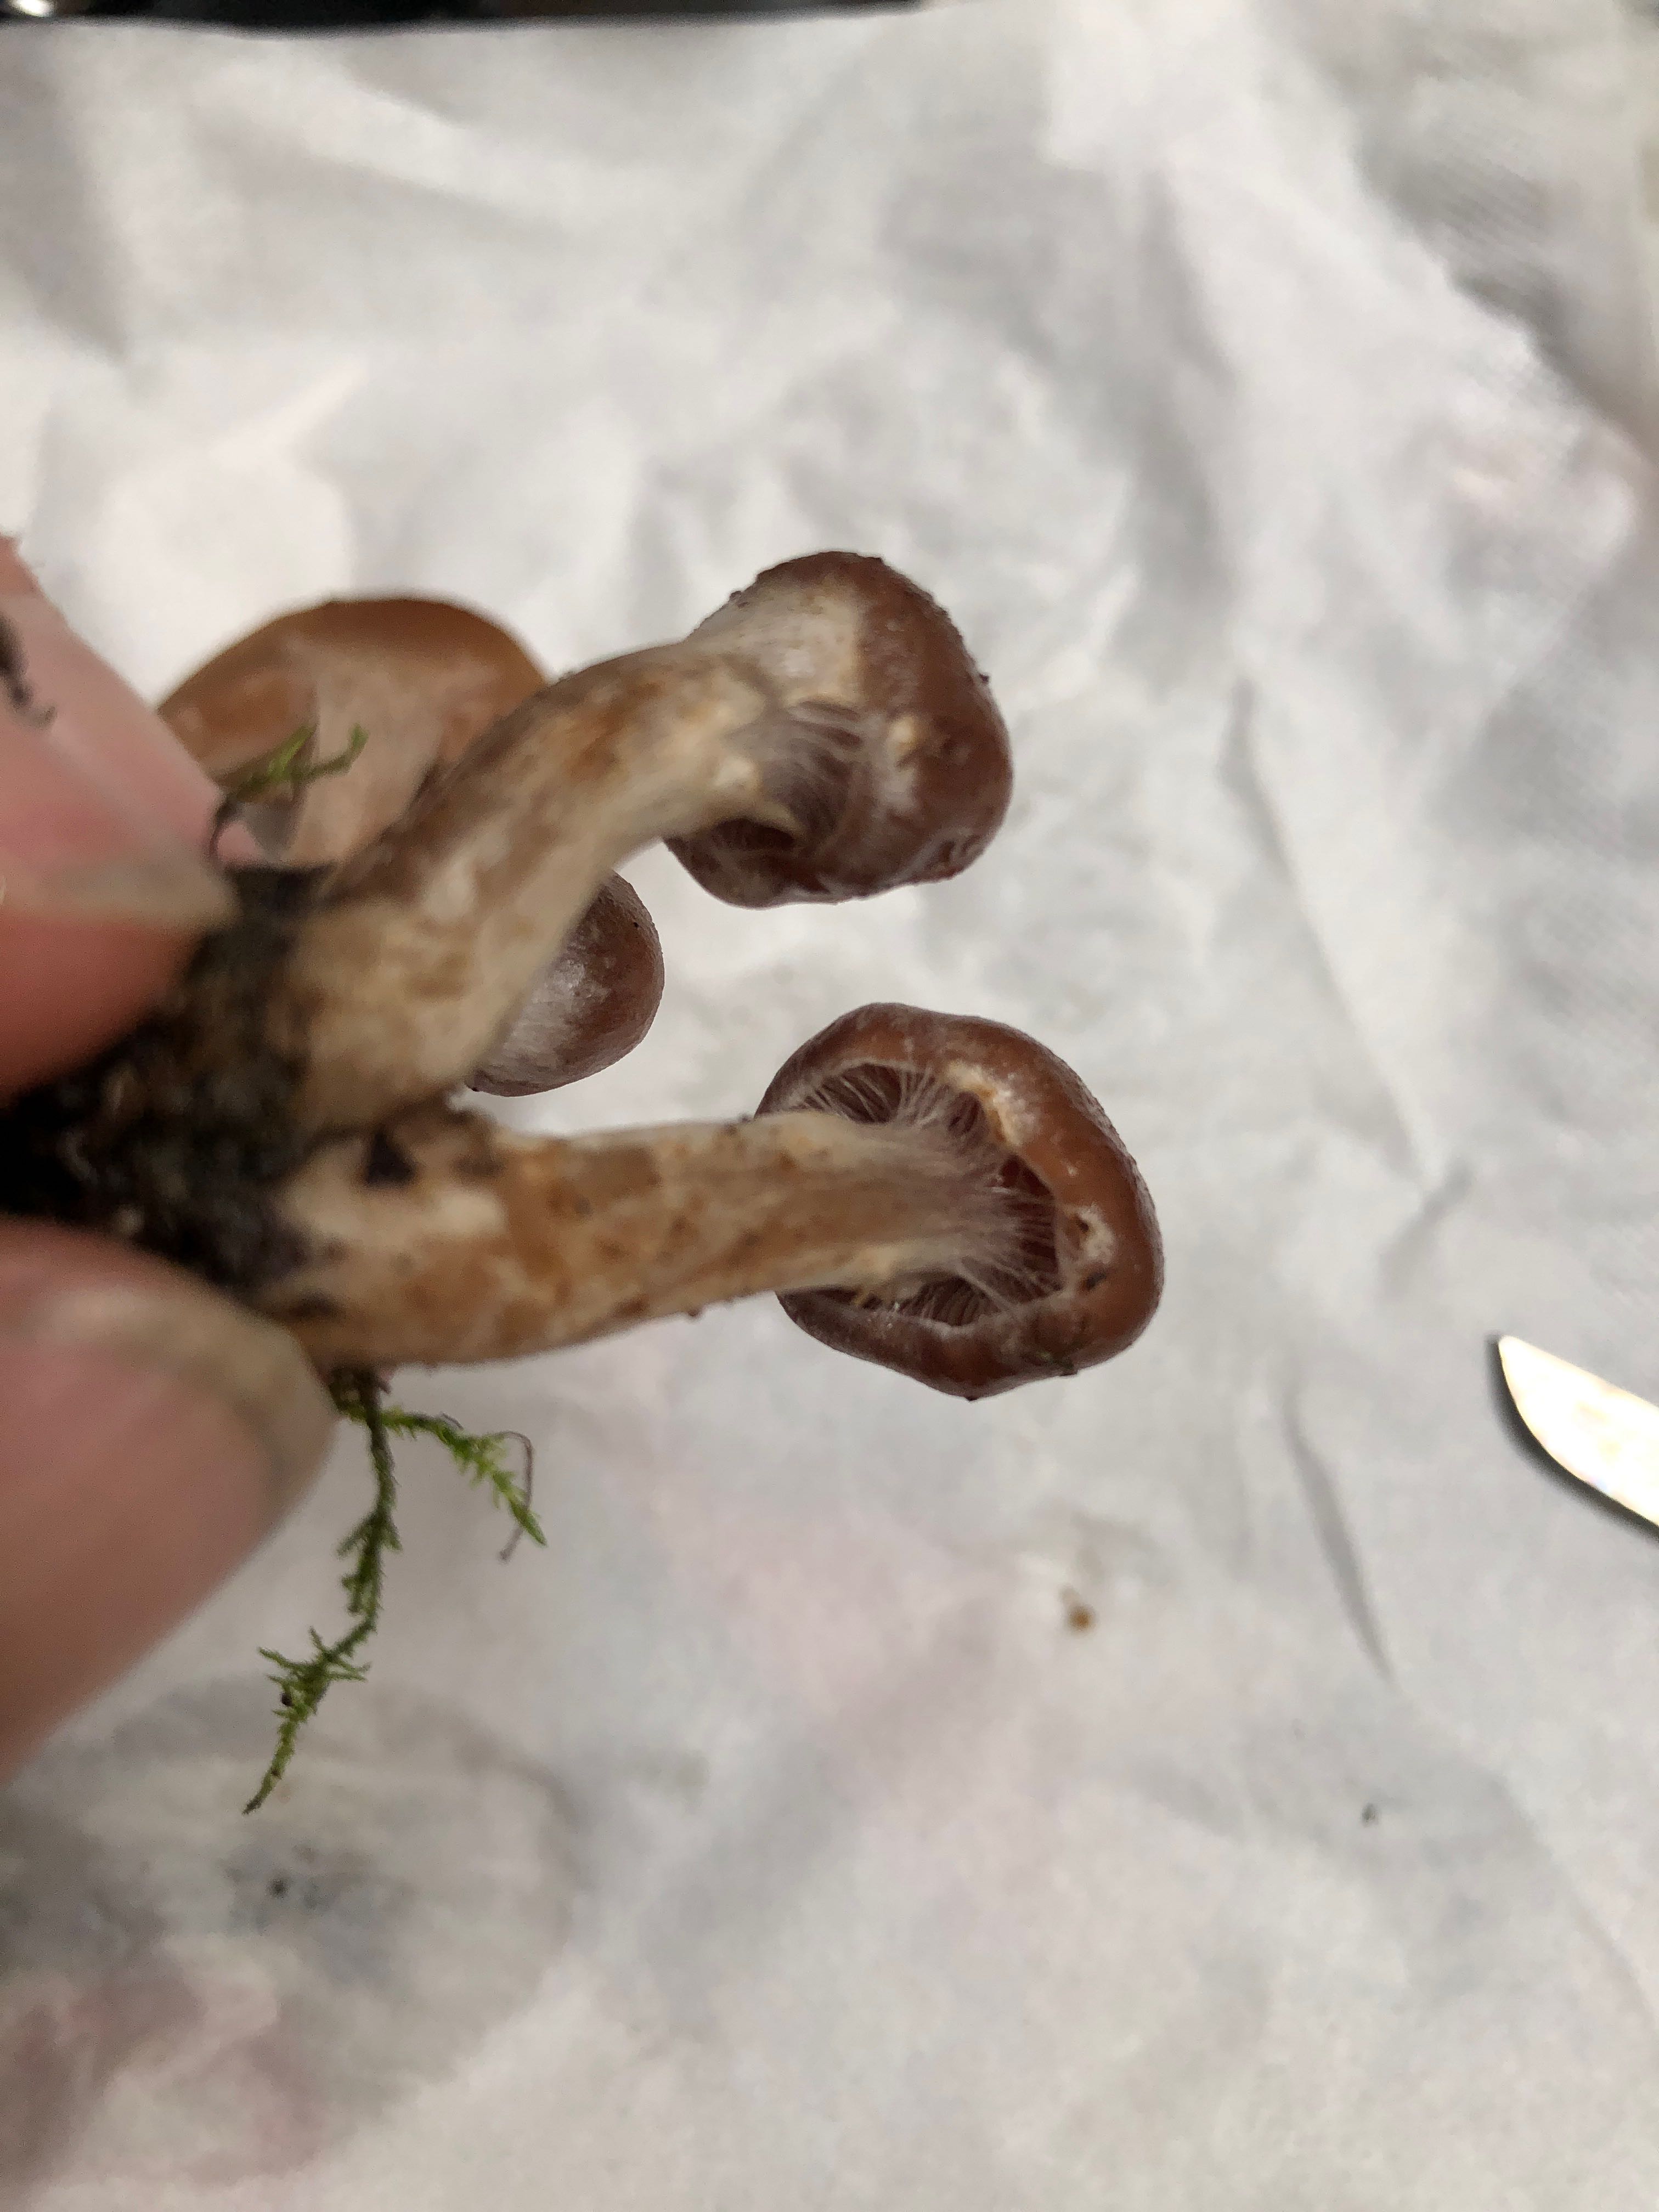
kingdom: Fungi
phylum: Basidiomycota
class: Agaricomycetes
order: Agaricales
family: Cortinariaceae
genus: Cortinarius
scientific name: Cortinarius
